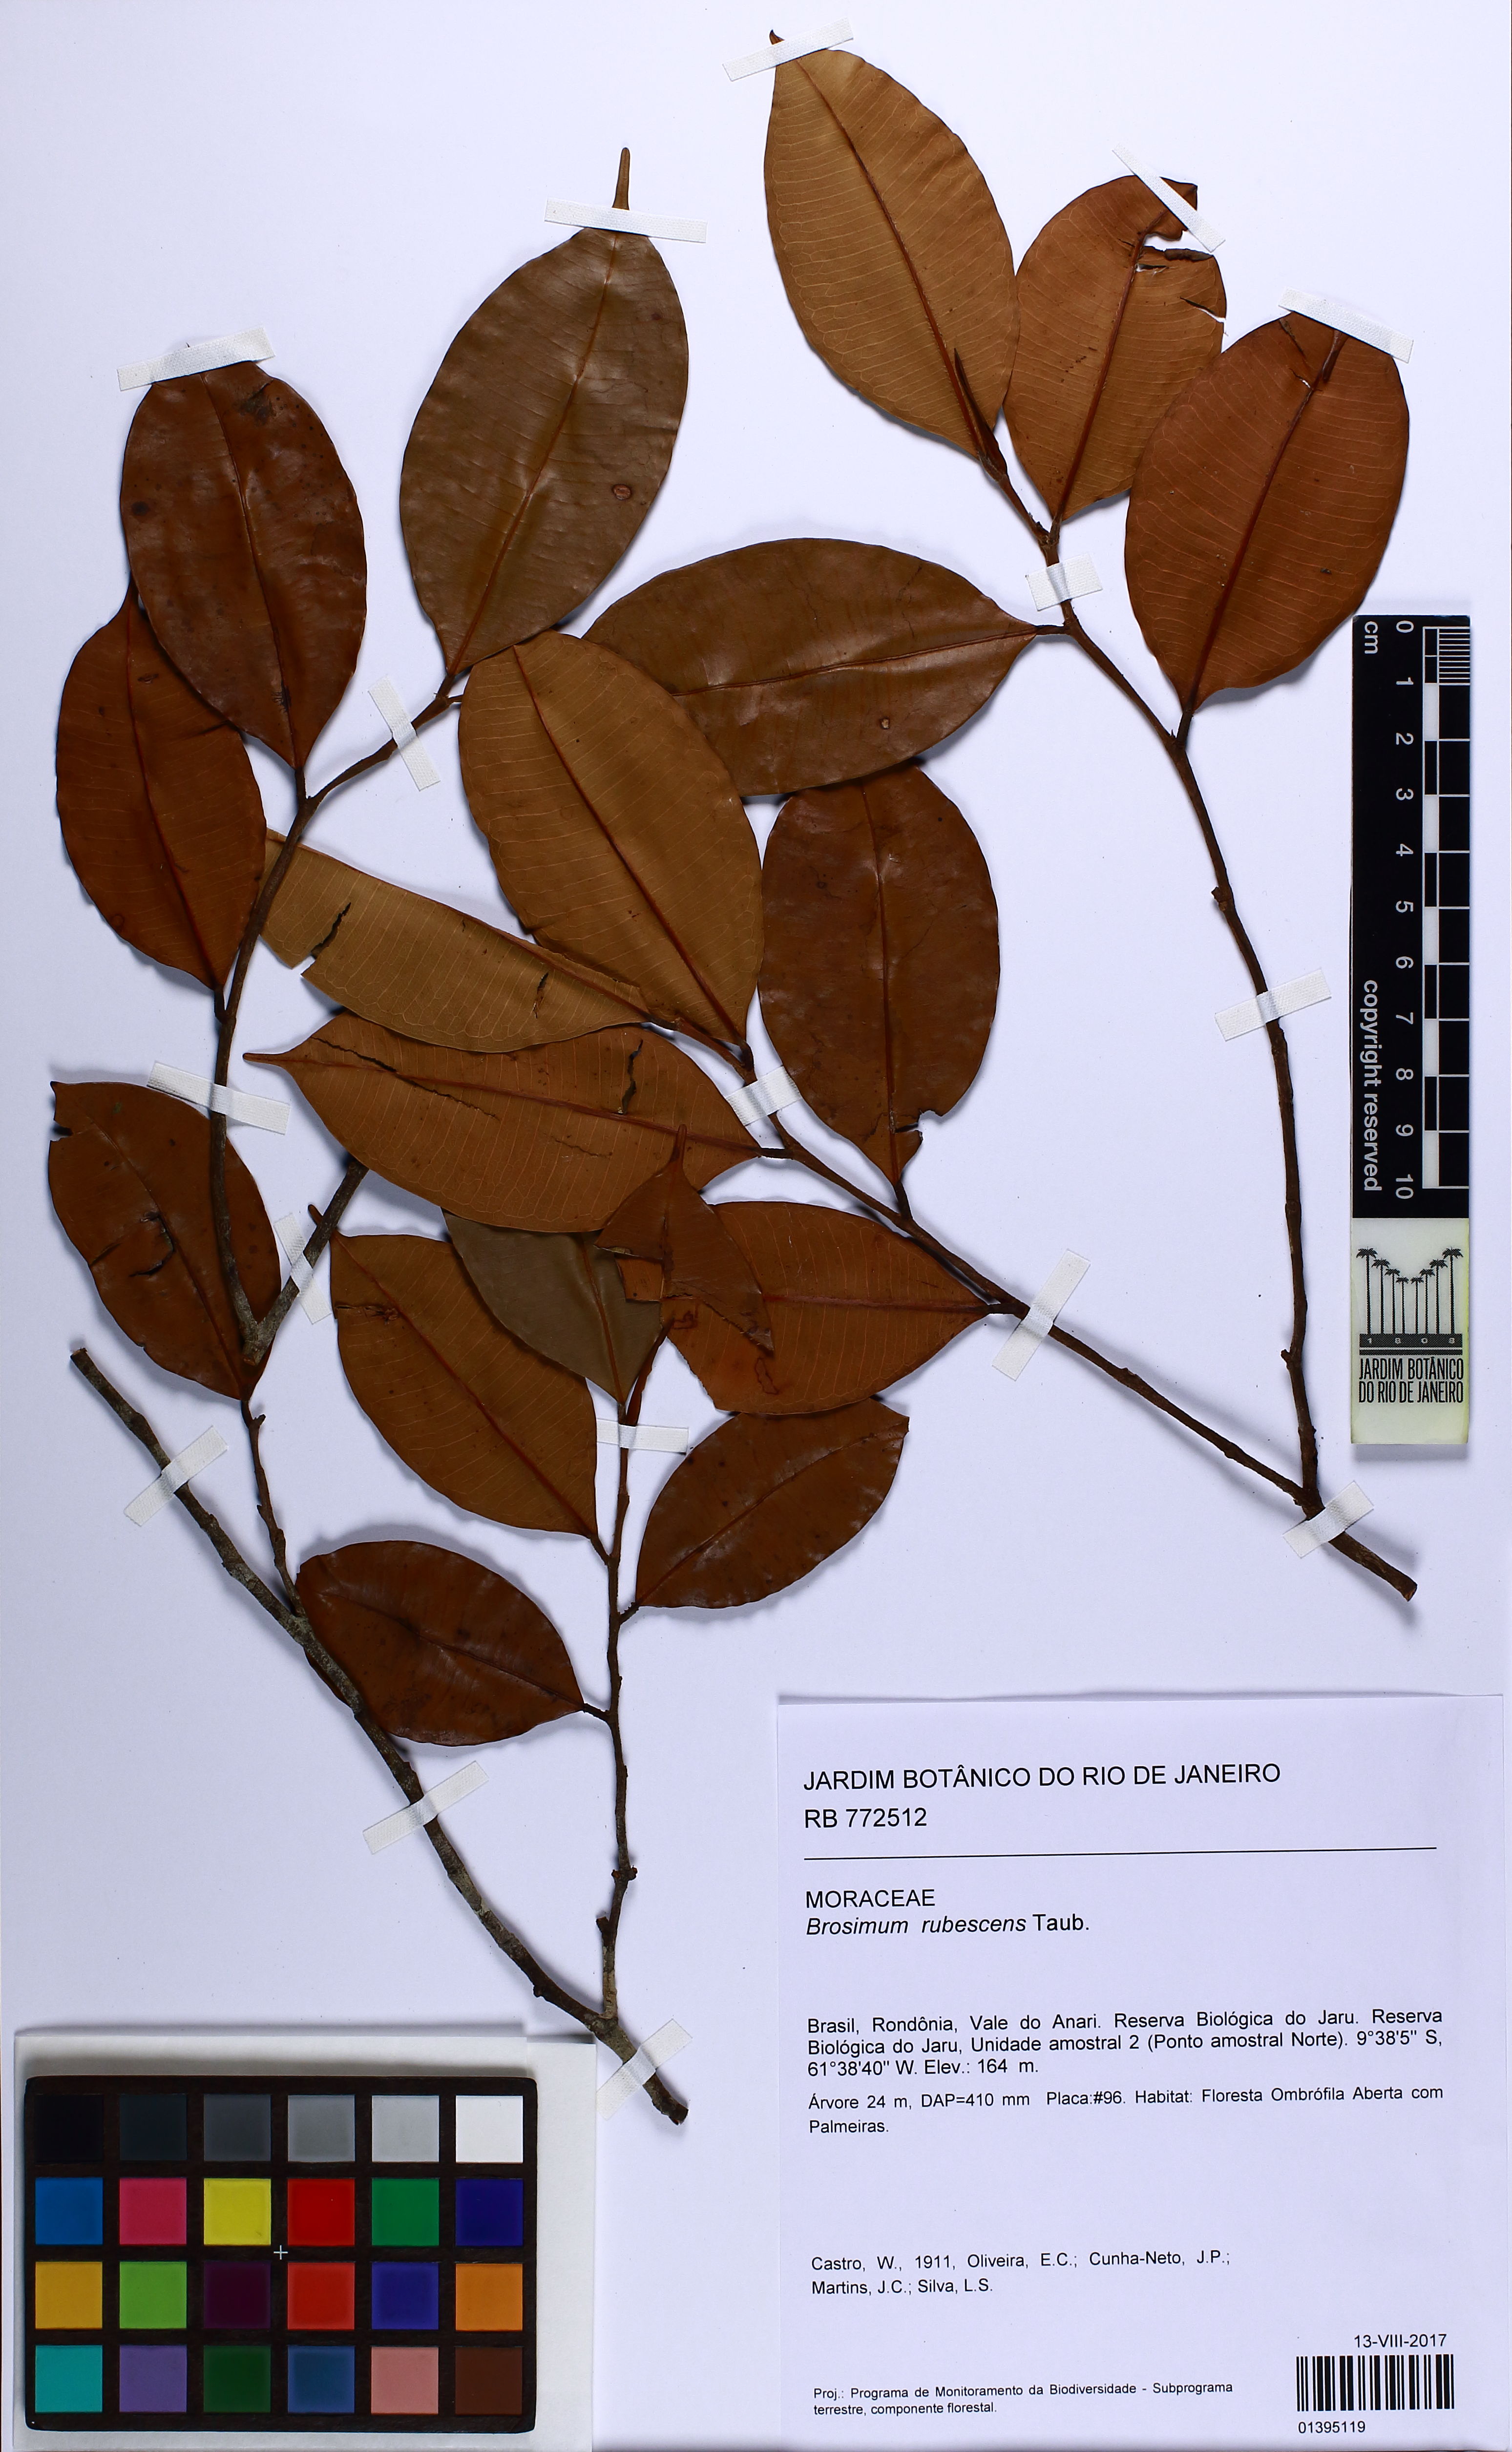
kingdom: Plantae
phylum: Tracheophyta
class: Magnoliopsida
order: Rosales
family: Moraceae
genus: Brosimum
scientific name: Brosimum rubescens
